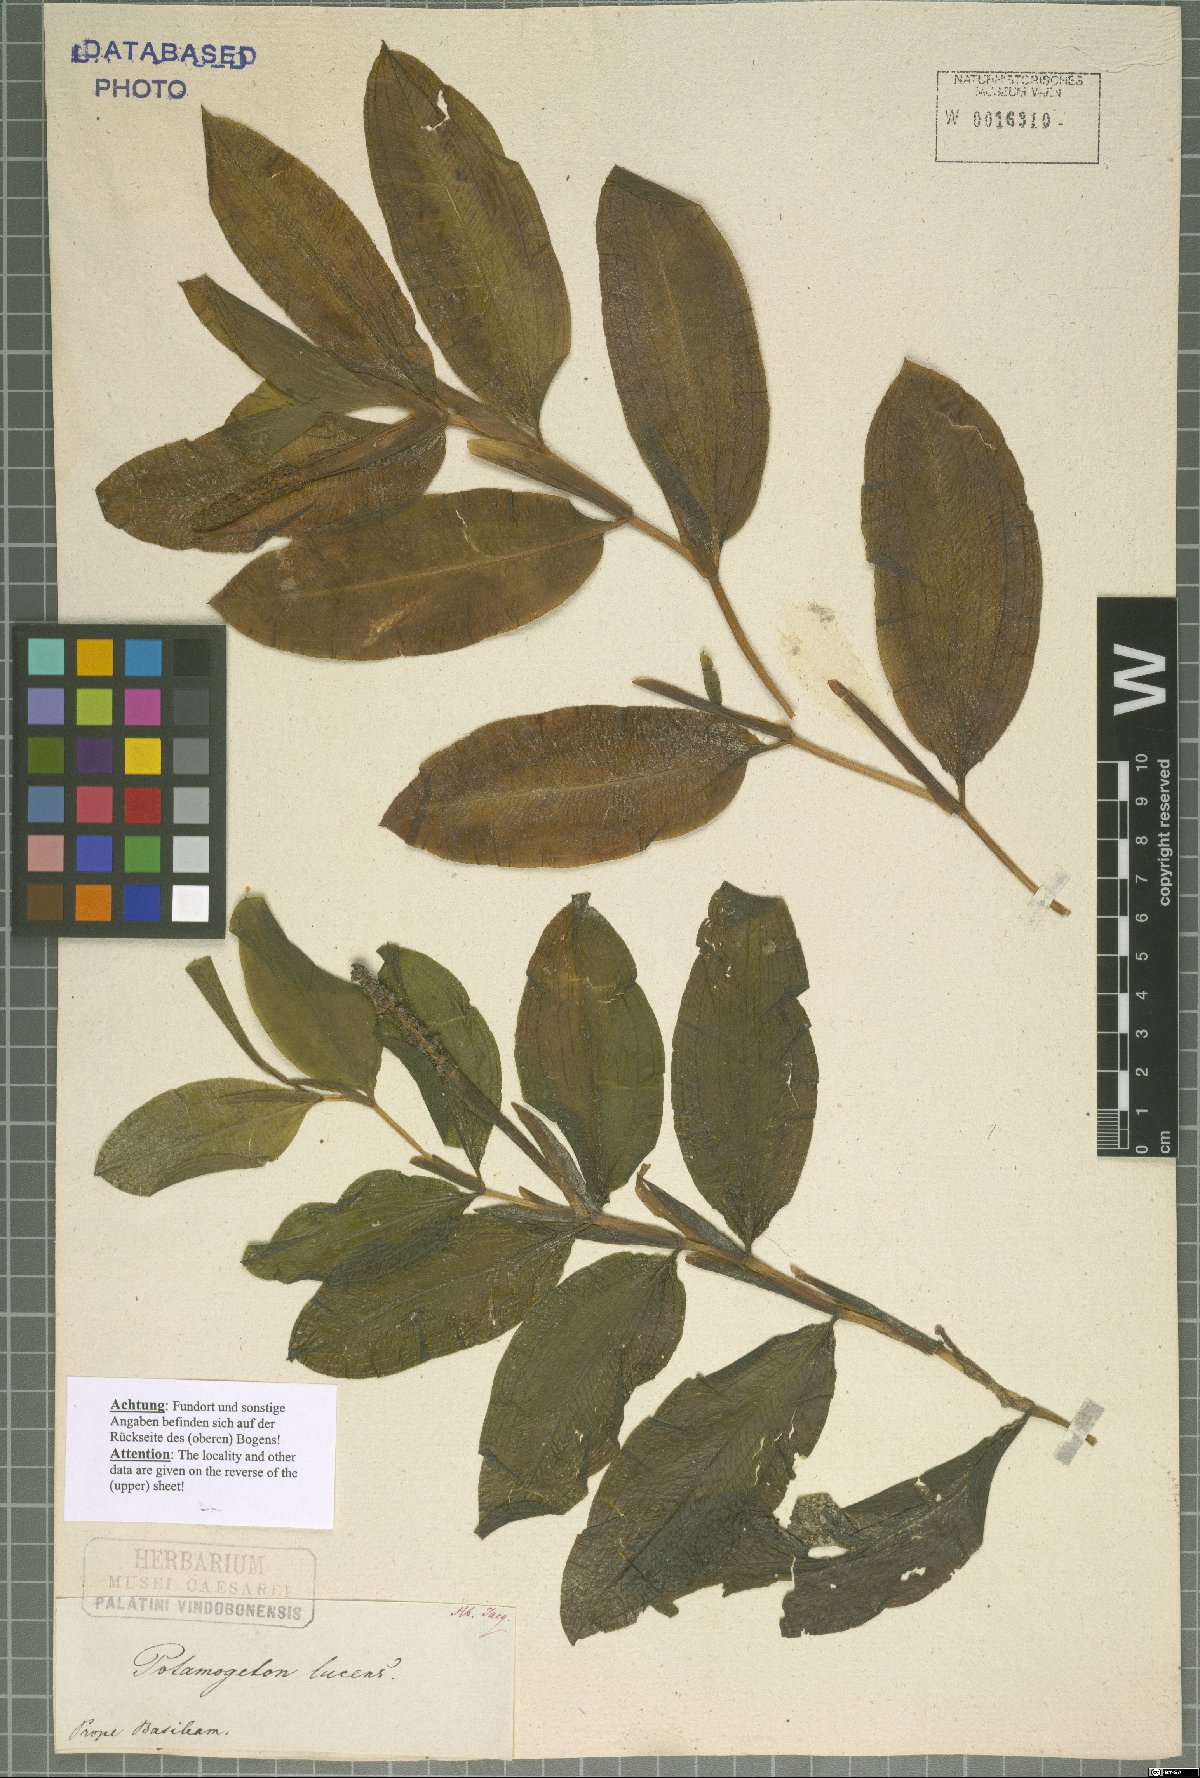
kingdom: Plantae
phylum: Tracheophyta
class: Liliopsida
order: Alismatales
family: Potamogetonaceae
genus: Potamogeton
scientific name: Potamogeton lucens
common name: Shining pondweed
